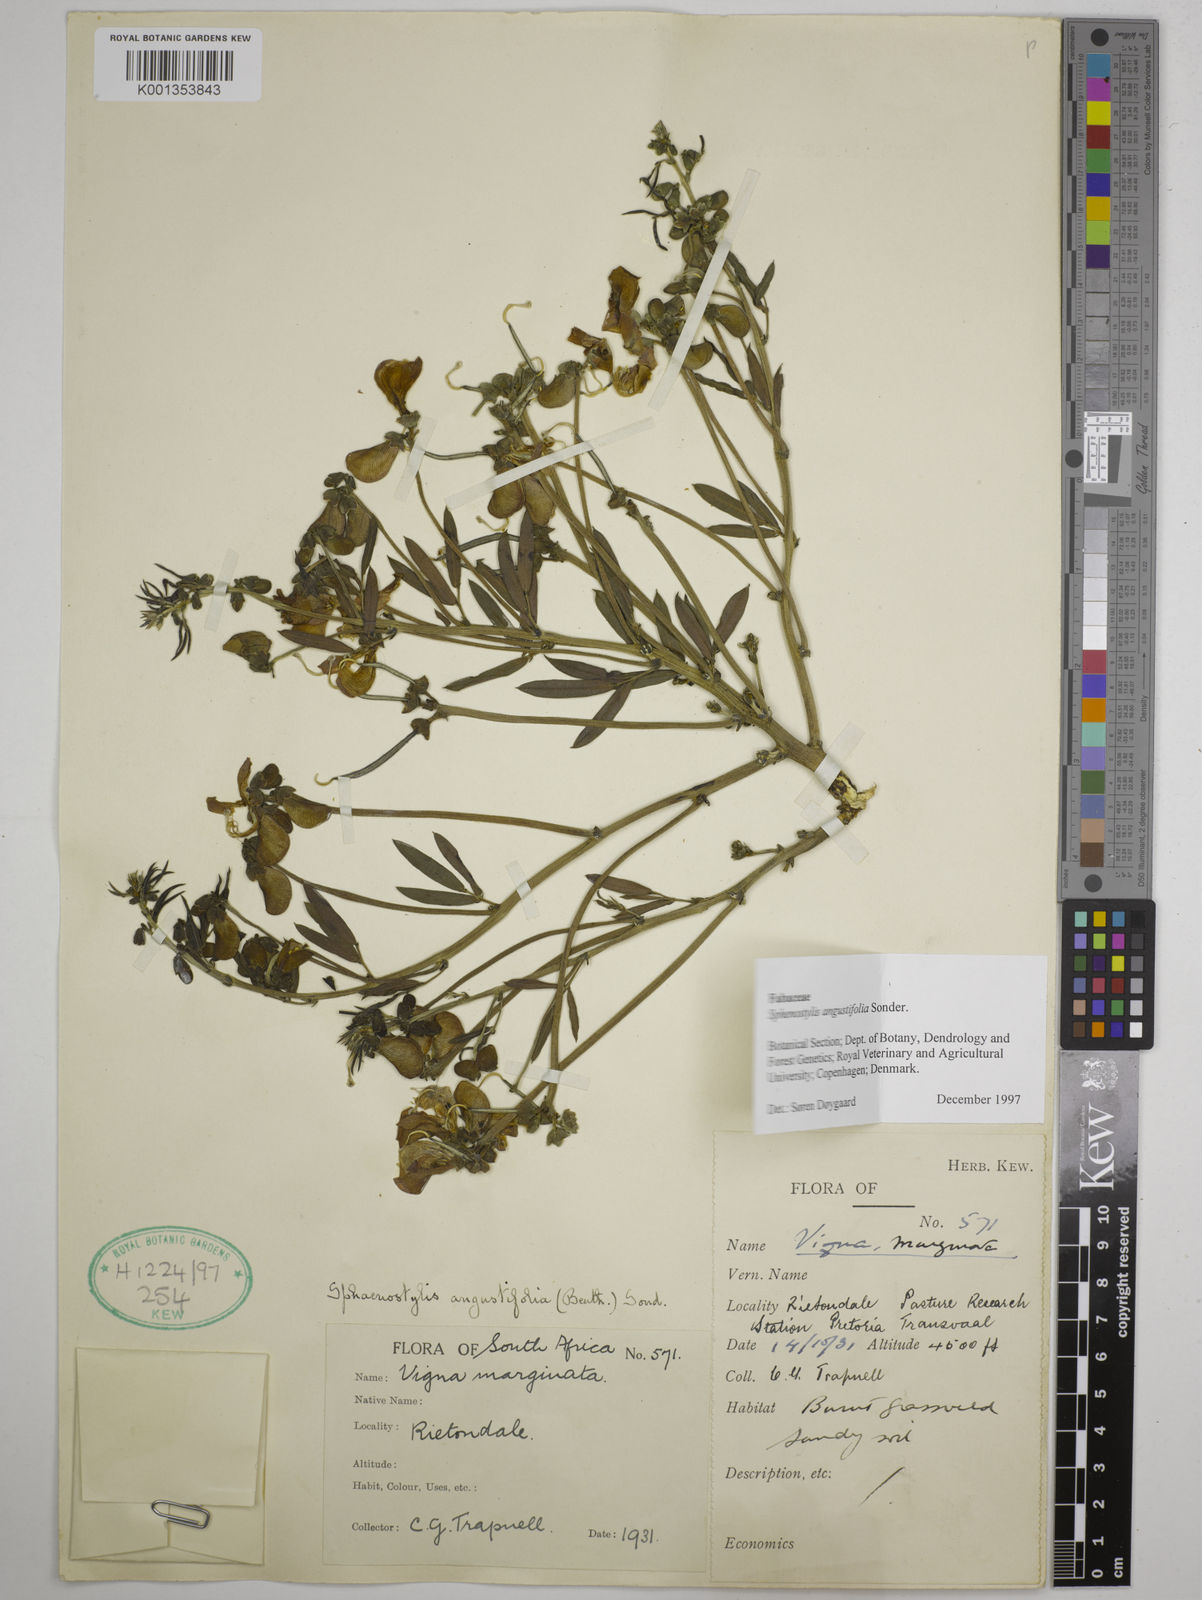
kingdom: Plantae
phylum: Tracheophyta
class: Magnoliopsida
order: Fabales
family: Fabaceae
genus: Sphenostylis
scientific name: Sphenostylis angustifolia
